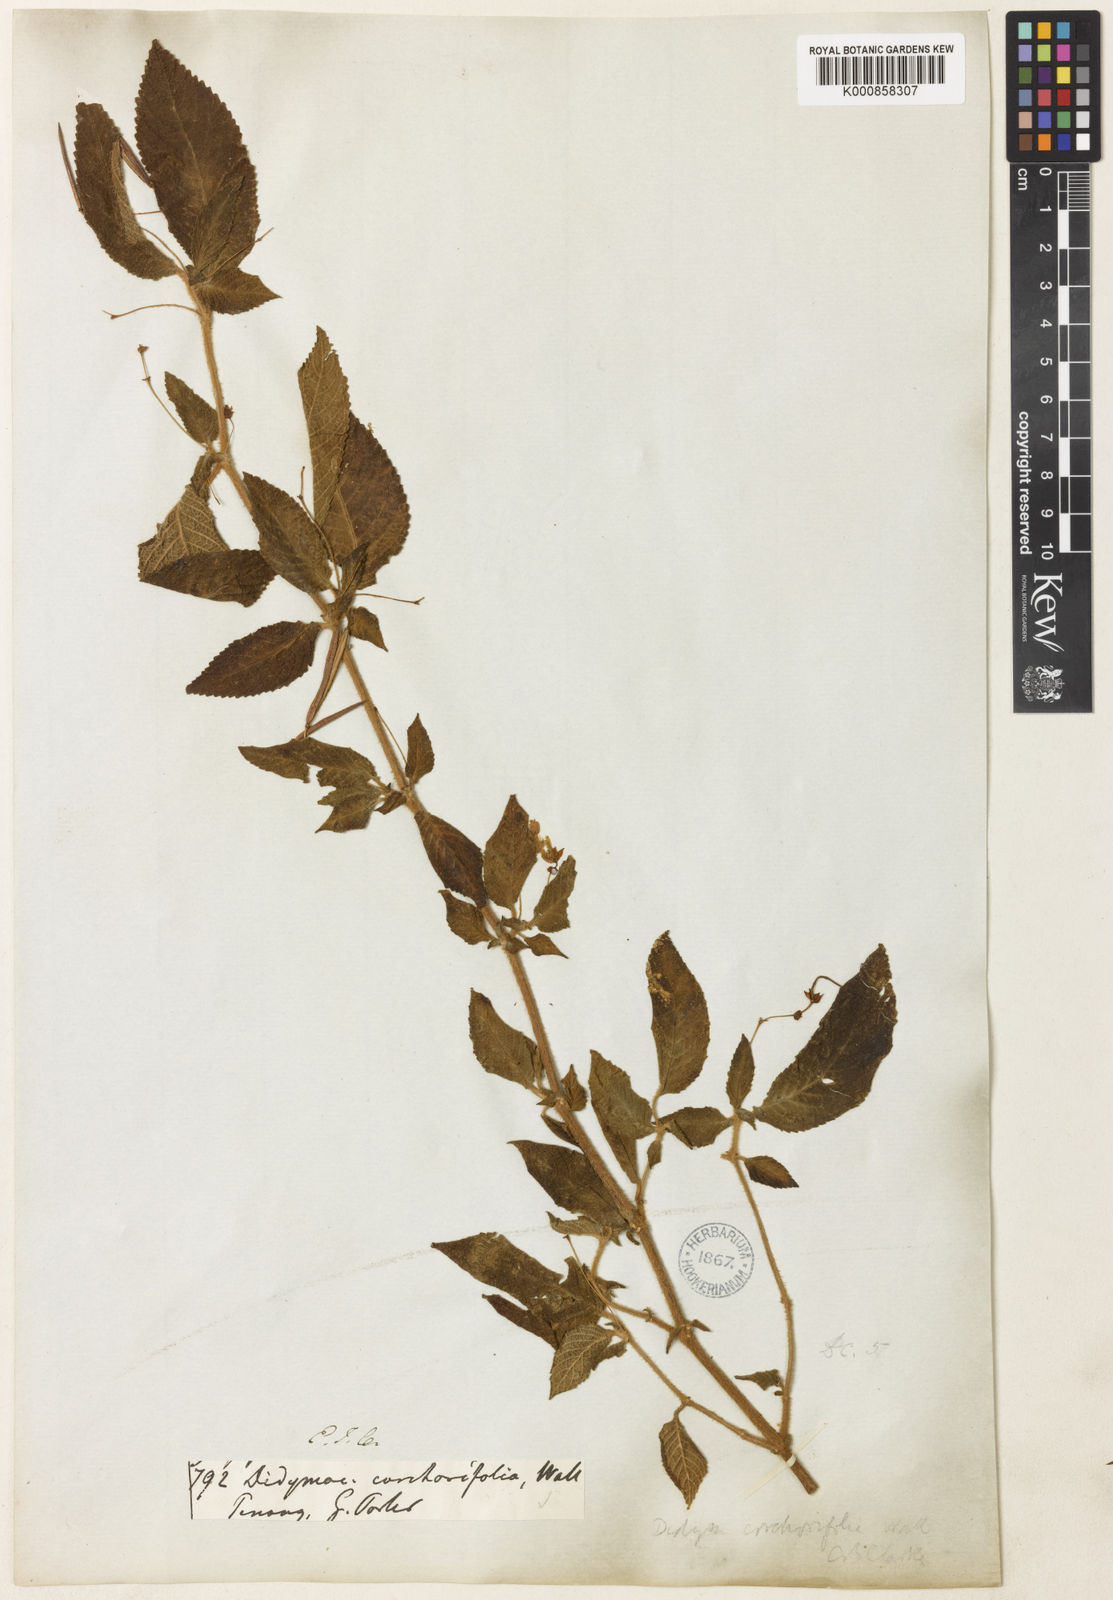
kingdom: Plantae
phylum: Tracheophyta
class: Magnoliopsida
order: Lamiales
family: Gesneriaceae
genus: Didymocarpus
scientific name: Didymocarpus
